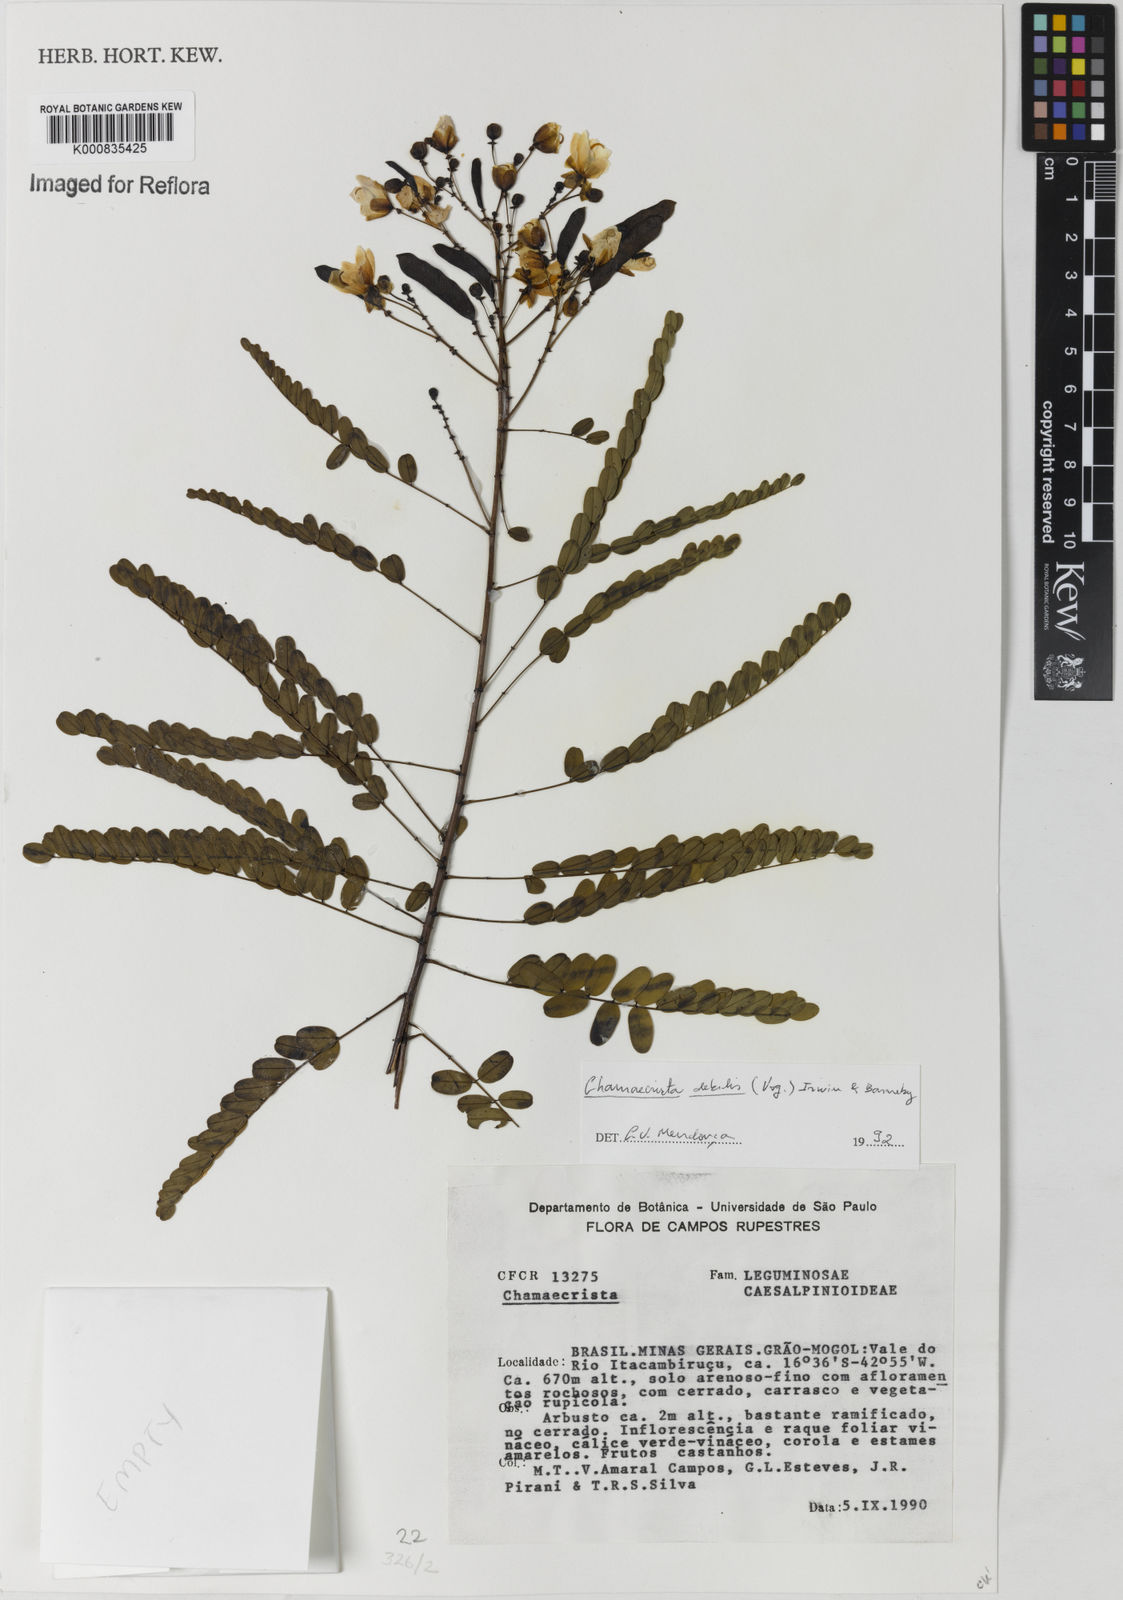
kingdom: Plantae
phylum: Tracheophyta
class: Magnoliopsida
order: Fabales
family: Fabaceae
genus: Chamaecrista
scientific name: Chamaecrista debilis
